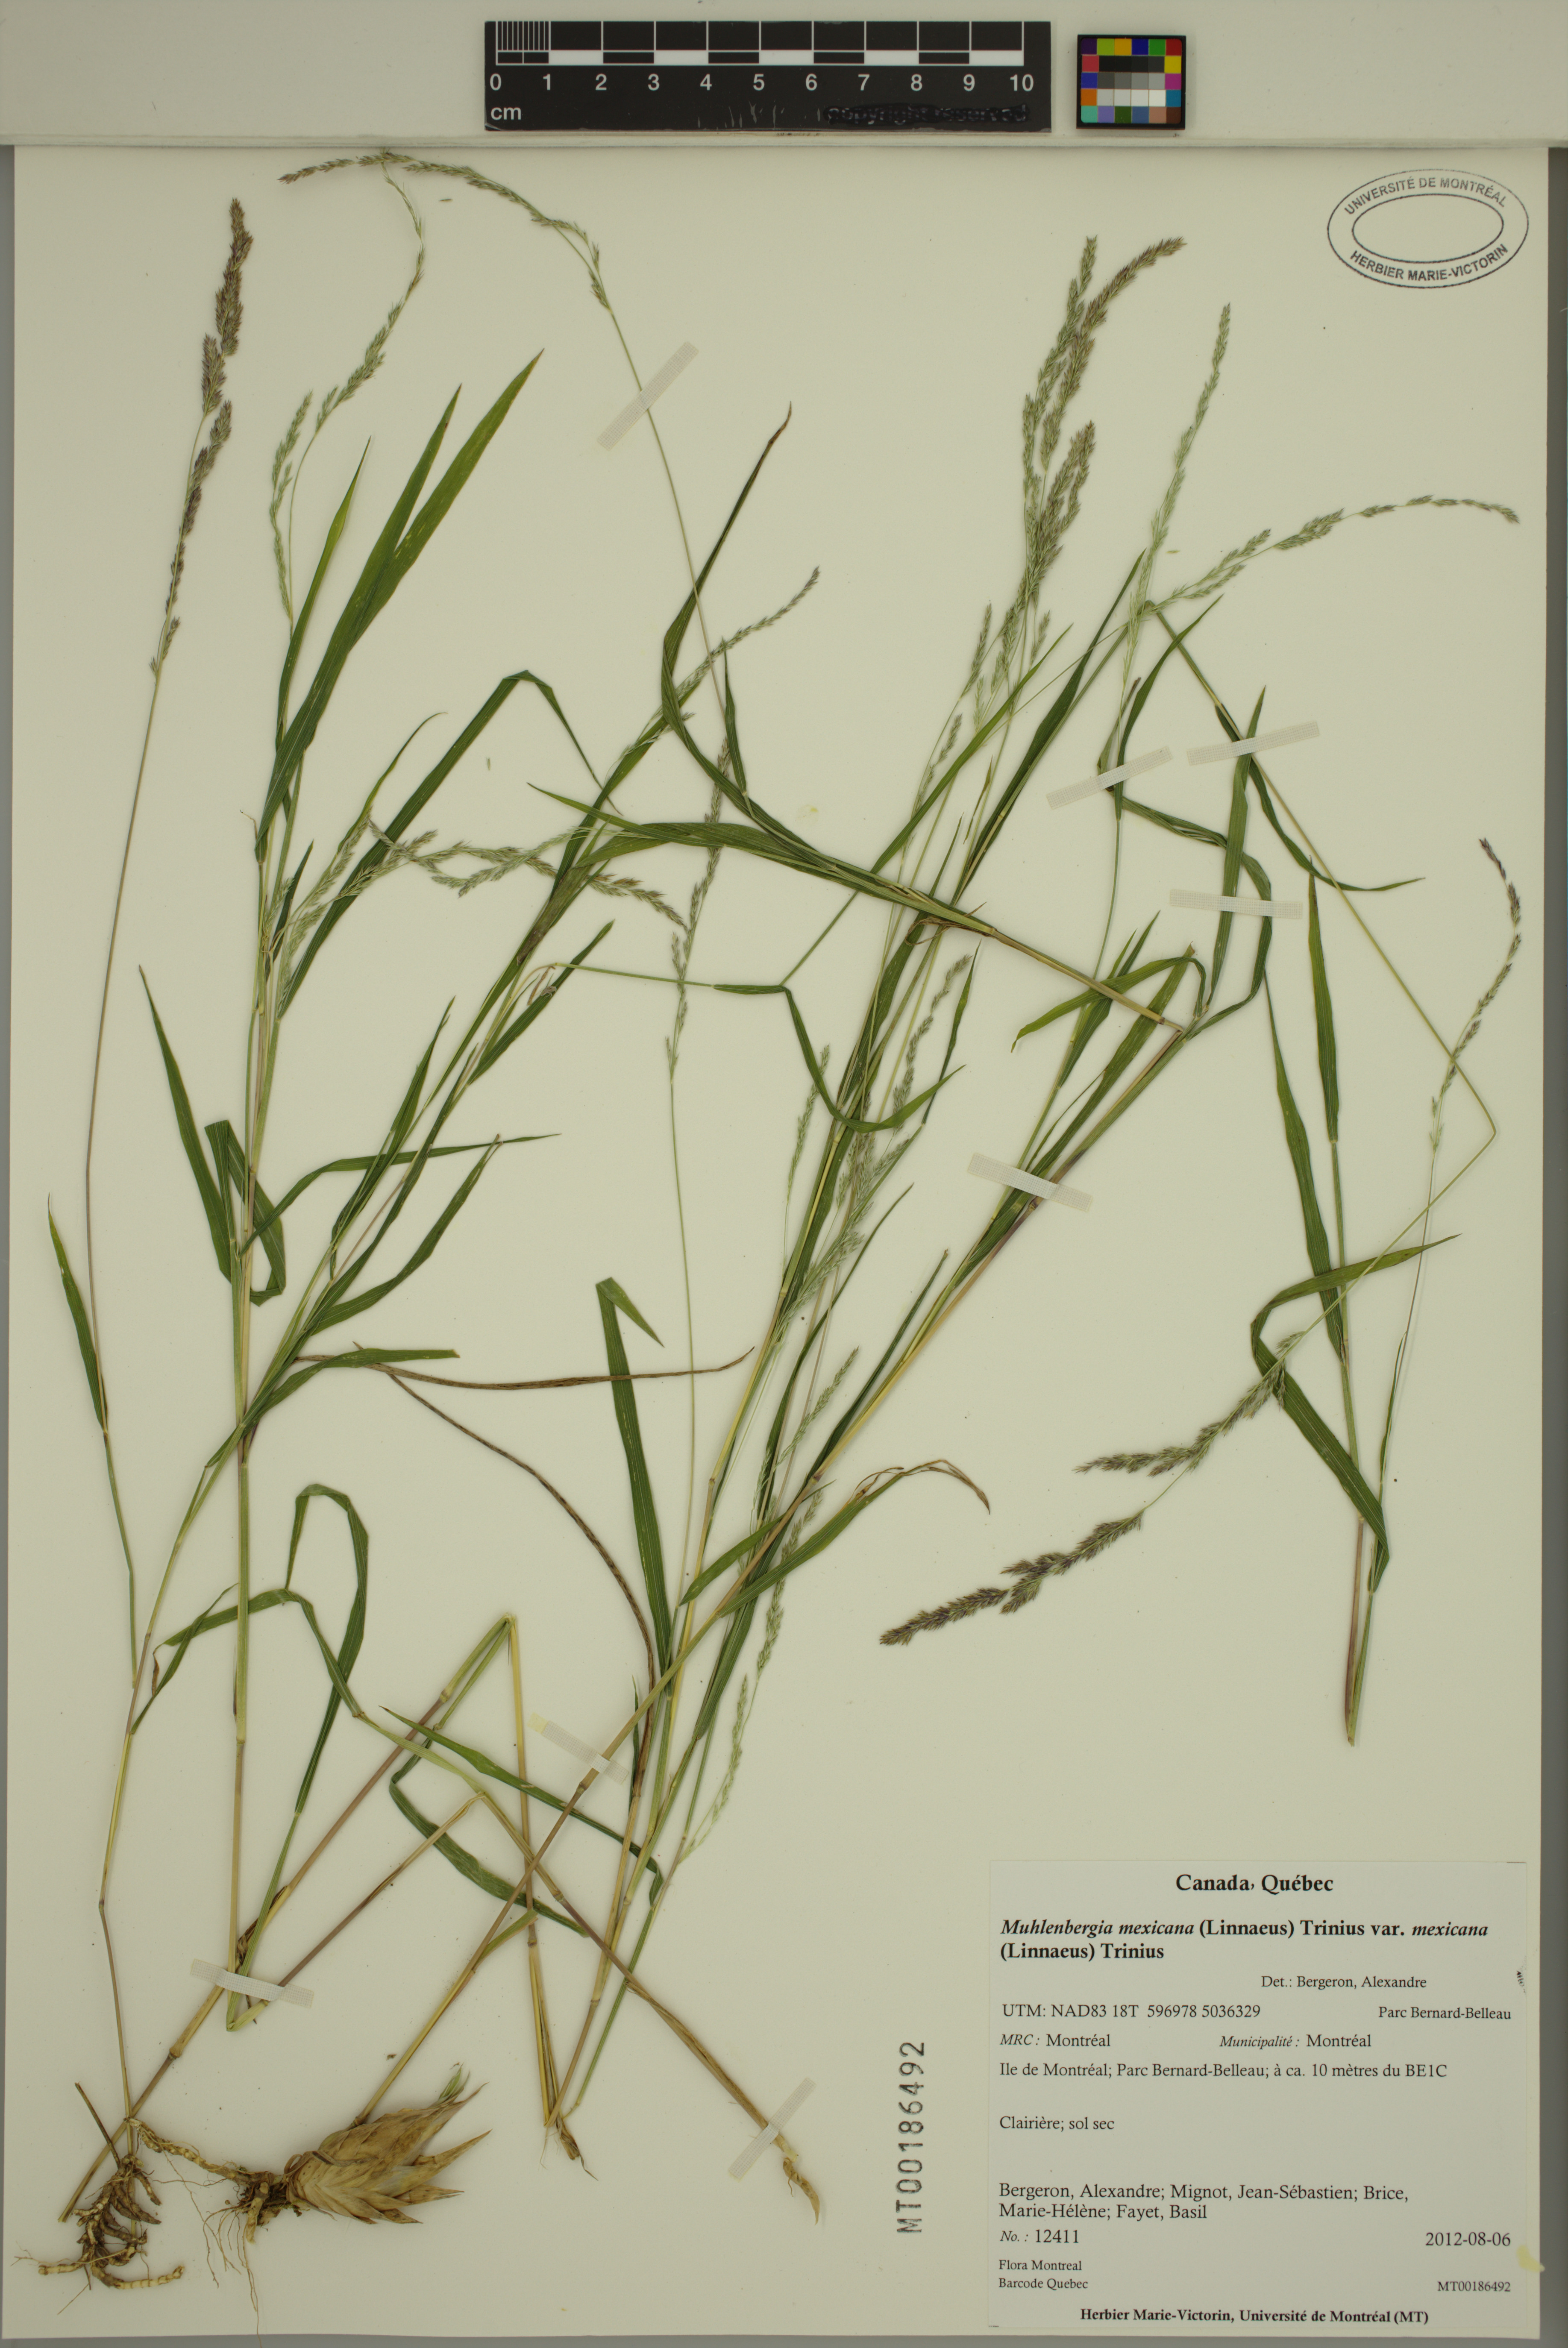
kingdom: Plantae
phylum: Tracheophyta
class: Liliopsida
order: Poales
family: Poaceae
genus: Muhlenbergia
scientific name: Muhlenbergia mexicana
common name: Mexican muhly
